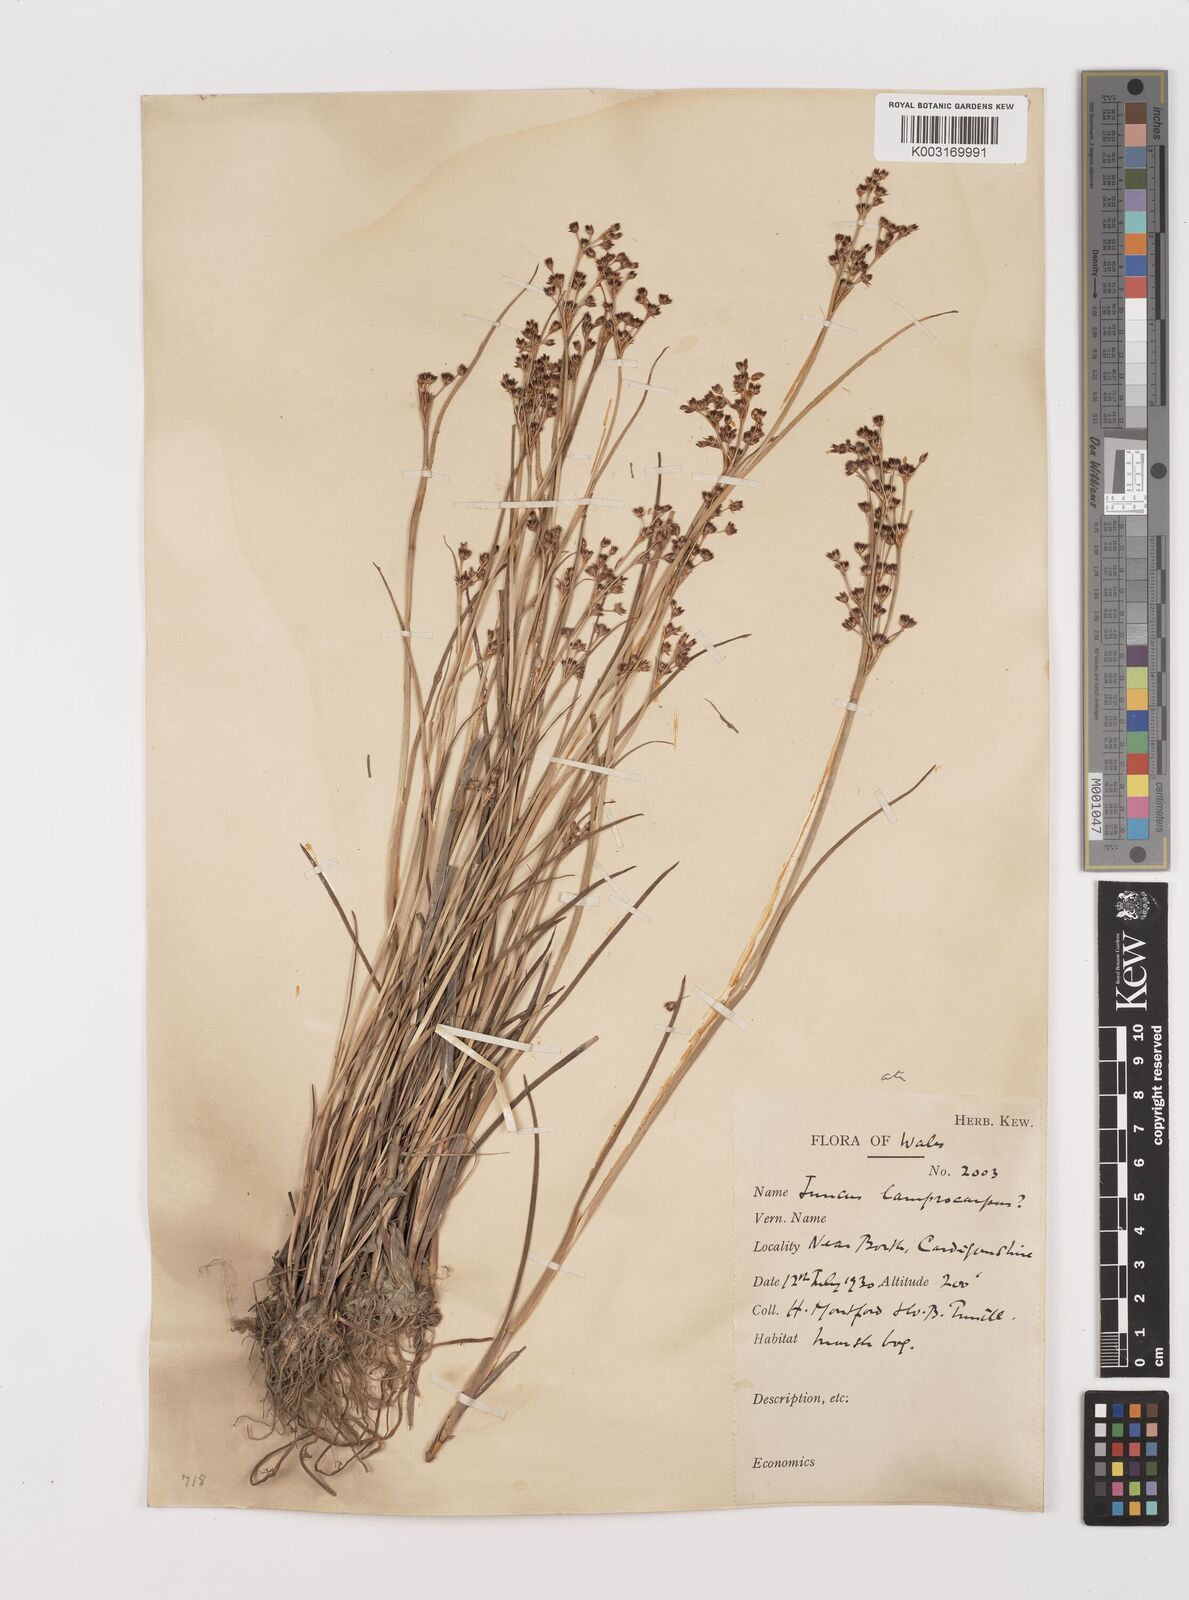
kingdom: Plantae
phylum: Tracheophyta
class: Liliopsida
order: Poales
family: Juncaceae
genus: Juncus
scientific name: Juncus articulatus
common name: Jointed rush
